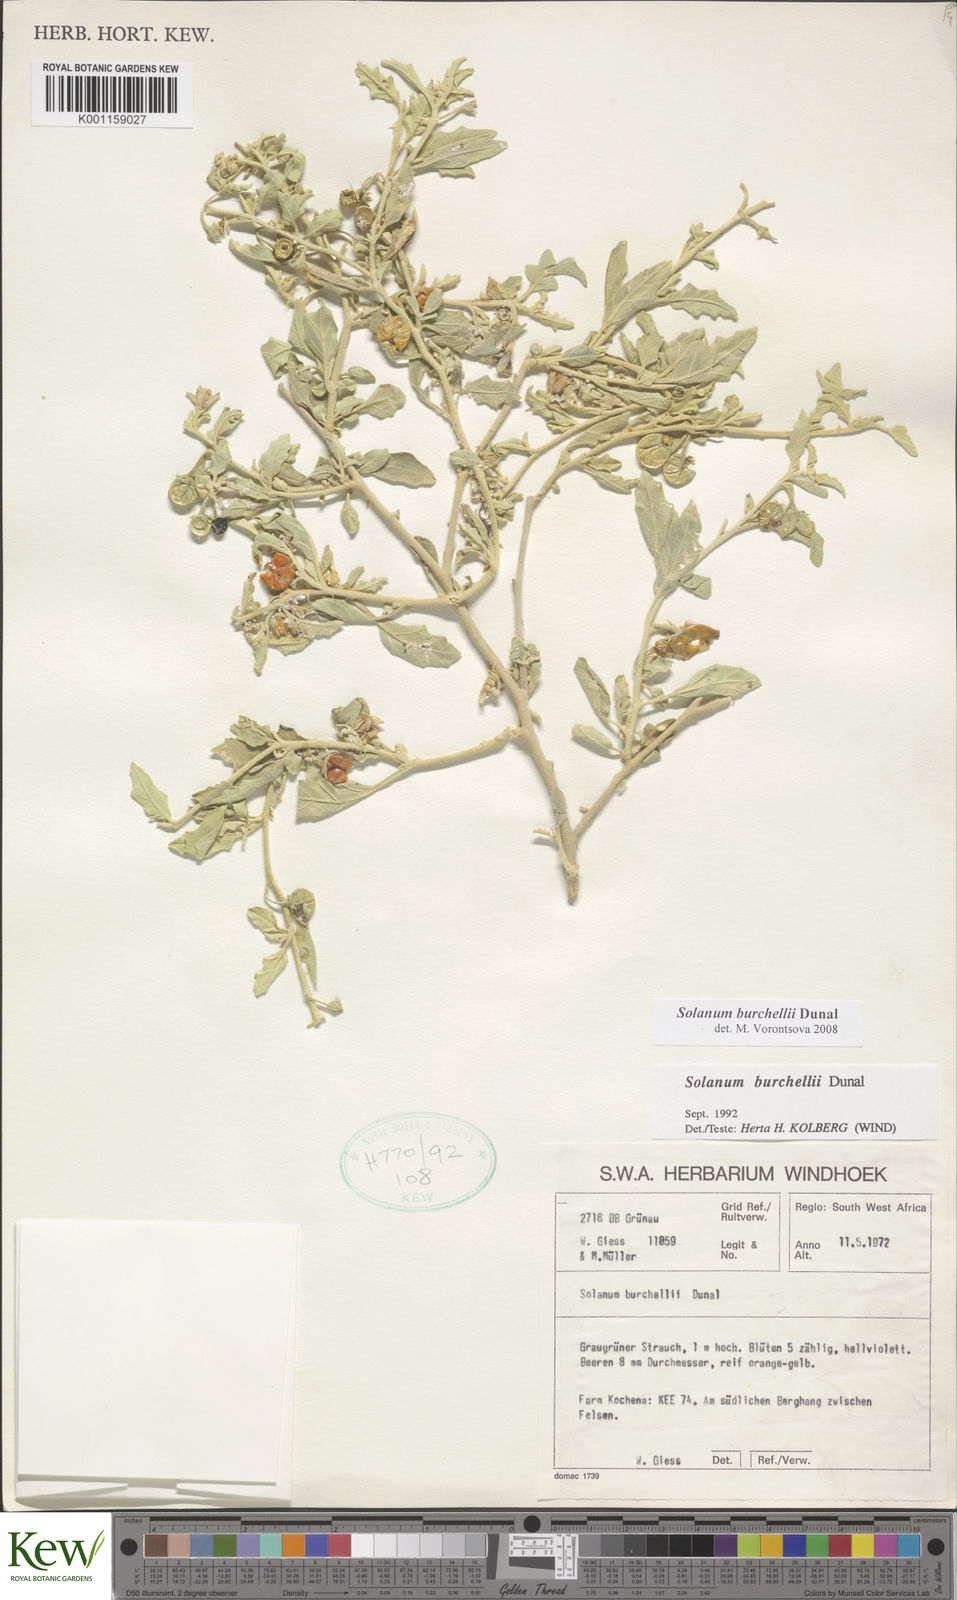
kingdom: Plantae
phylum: Tracheophyta
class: Magnoliopsida
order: Solanales
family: Solanaceae
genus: Solanum
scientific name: Solanum burchellii
